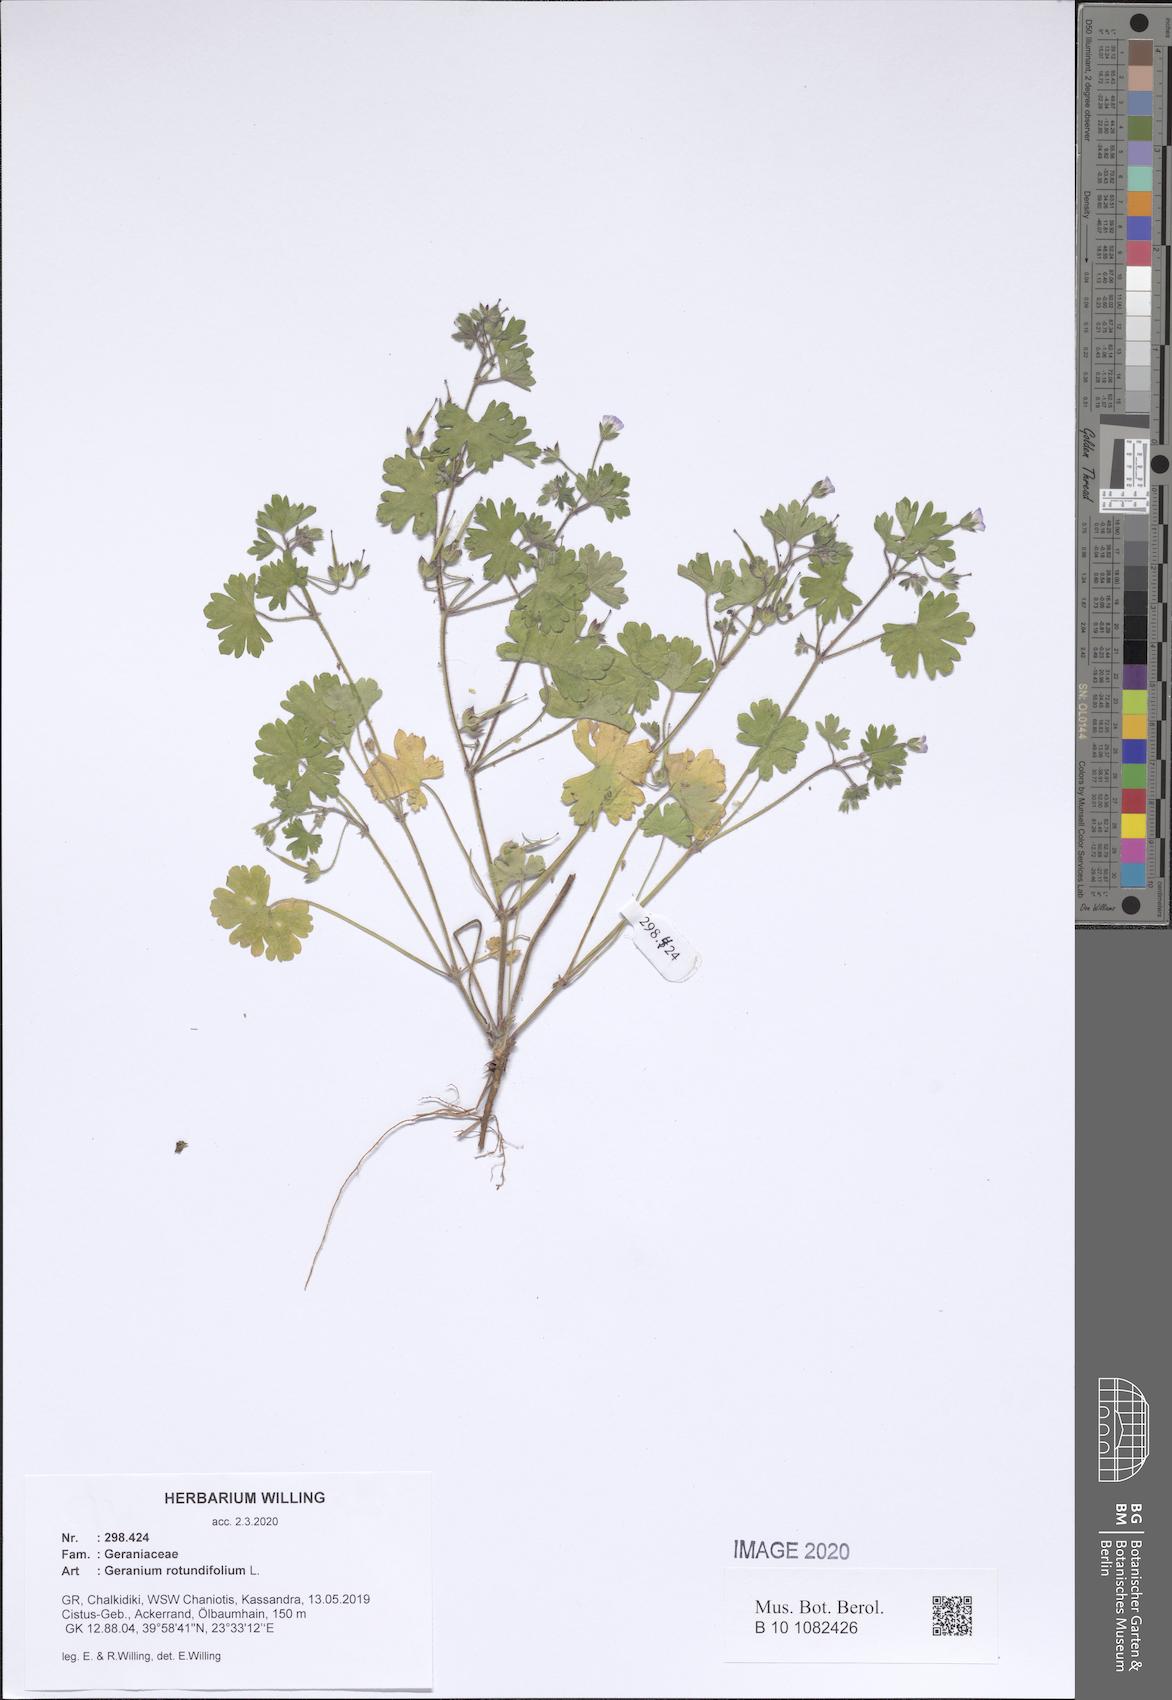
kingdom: Plantae
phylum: Tracheophyta
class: Magnoliopsida
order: Geraniales
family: Geraniaceae
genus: Geranium
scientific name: Geranium rotundifolium
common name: Round-leaved crane's-bill
